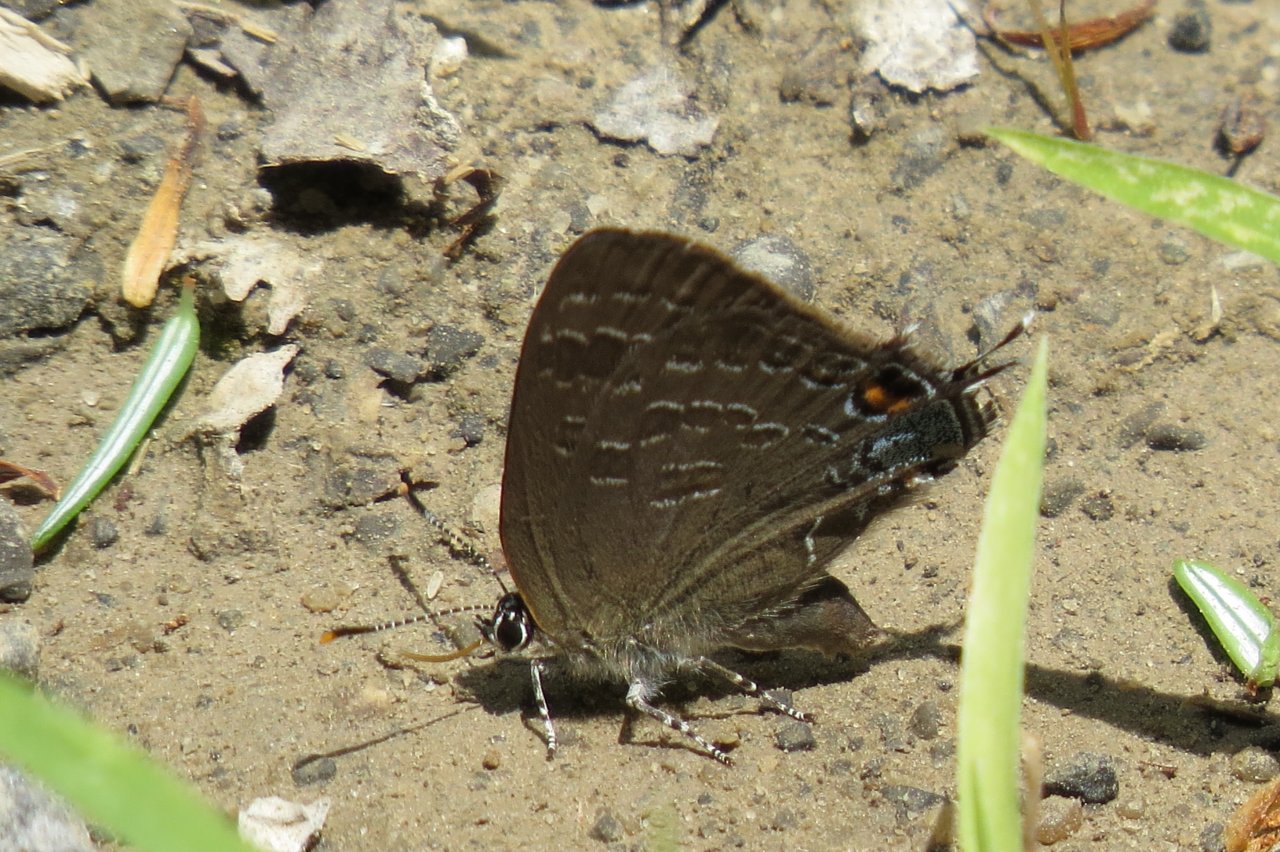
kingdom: Animalia
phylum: Arthropoda
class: Insecta
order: Lepidoptera
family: Lycaenidae
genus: Strymon
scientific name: Strymon caryaevorus
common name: Hickory Hairstreak
